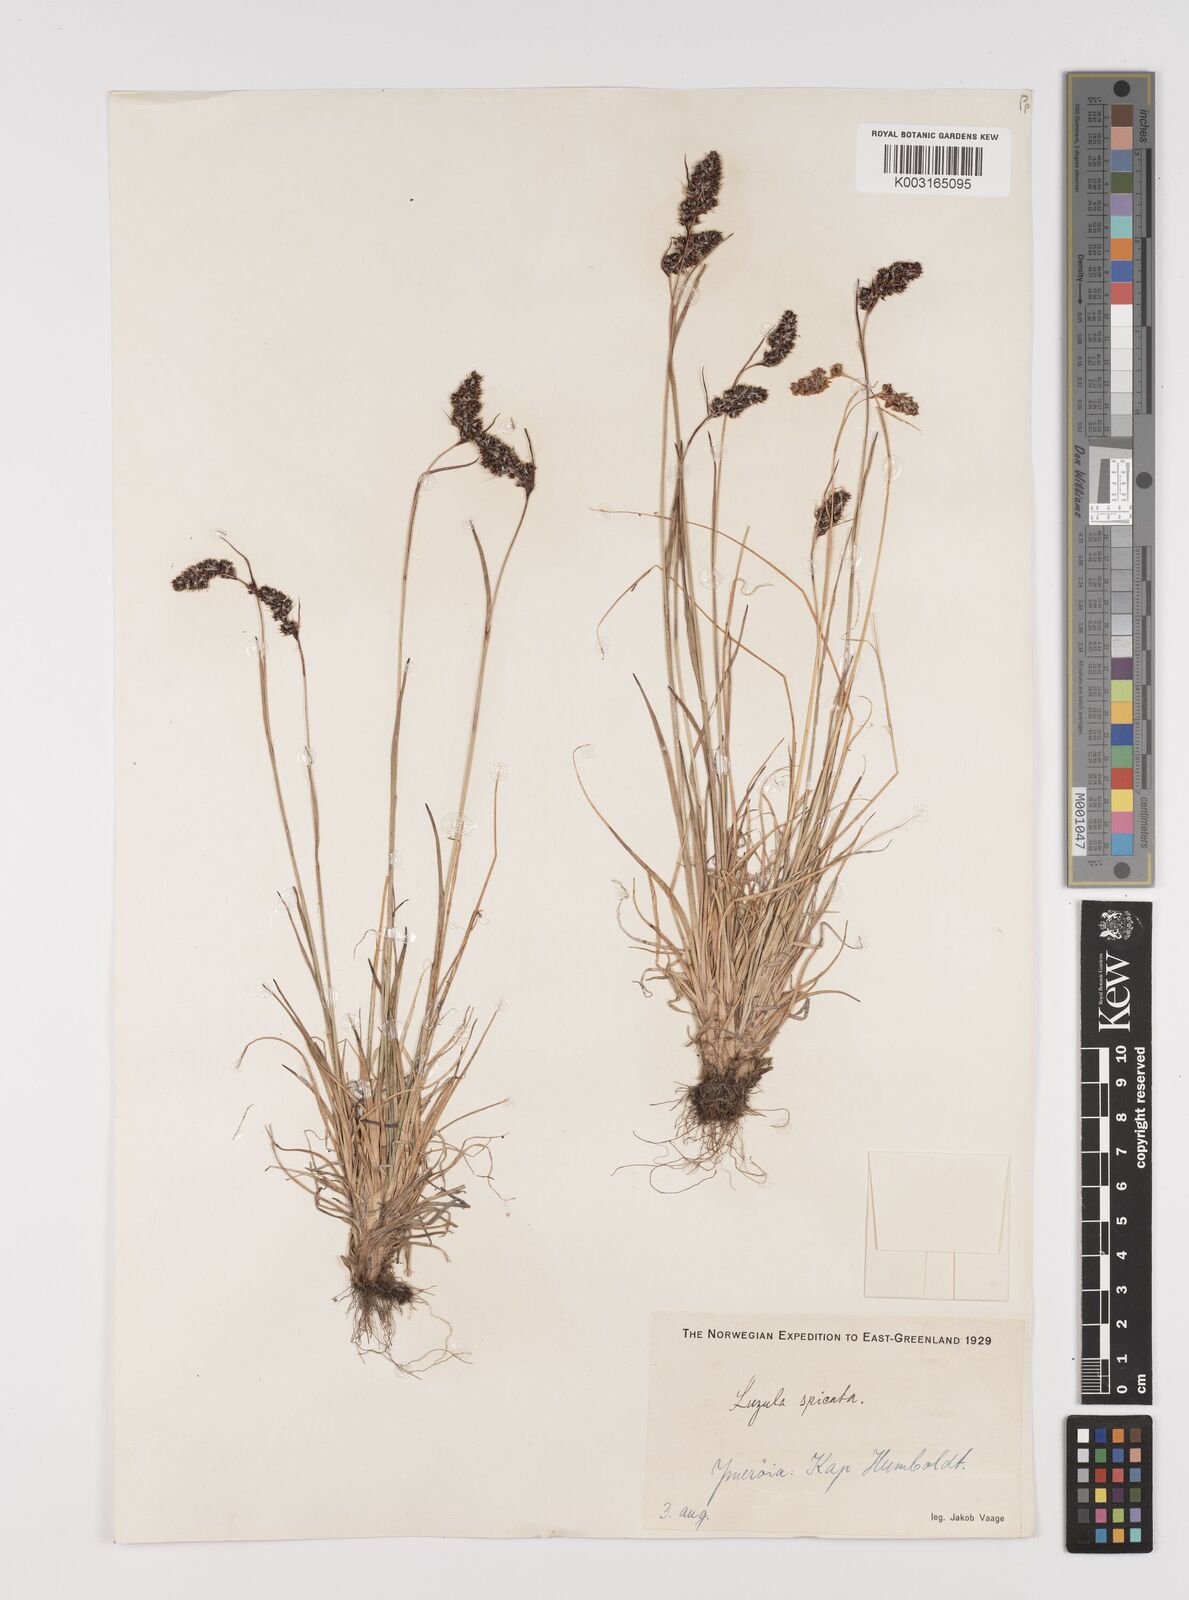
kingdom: Plantae
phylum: Tracheophyta
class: Liliopsida
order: Poales
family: Juncaceae
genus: Luzula
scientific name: Luzula spicata
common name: Spiked wood-rush
